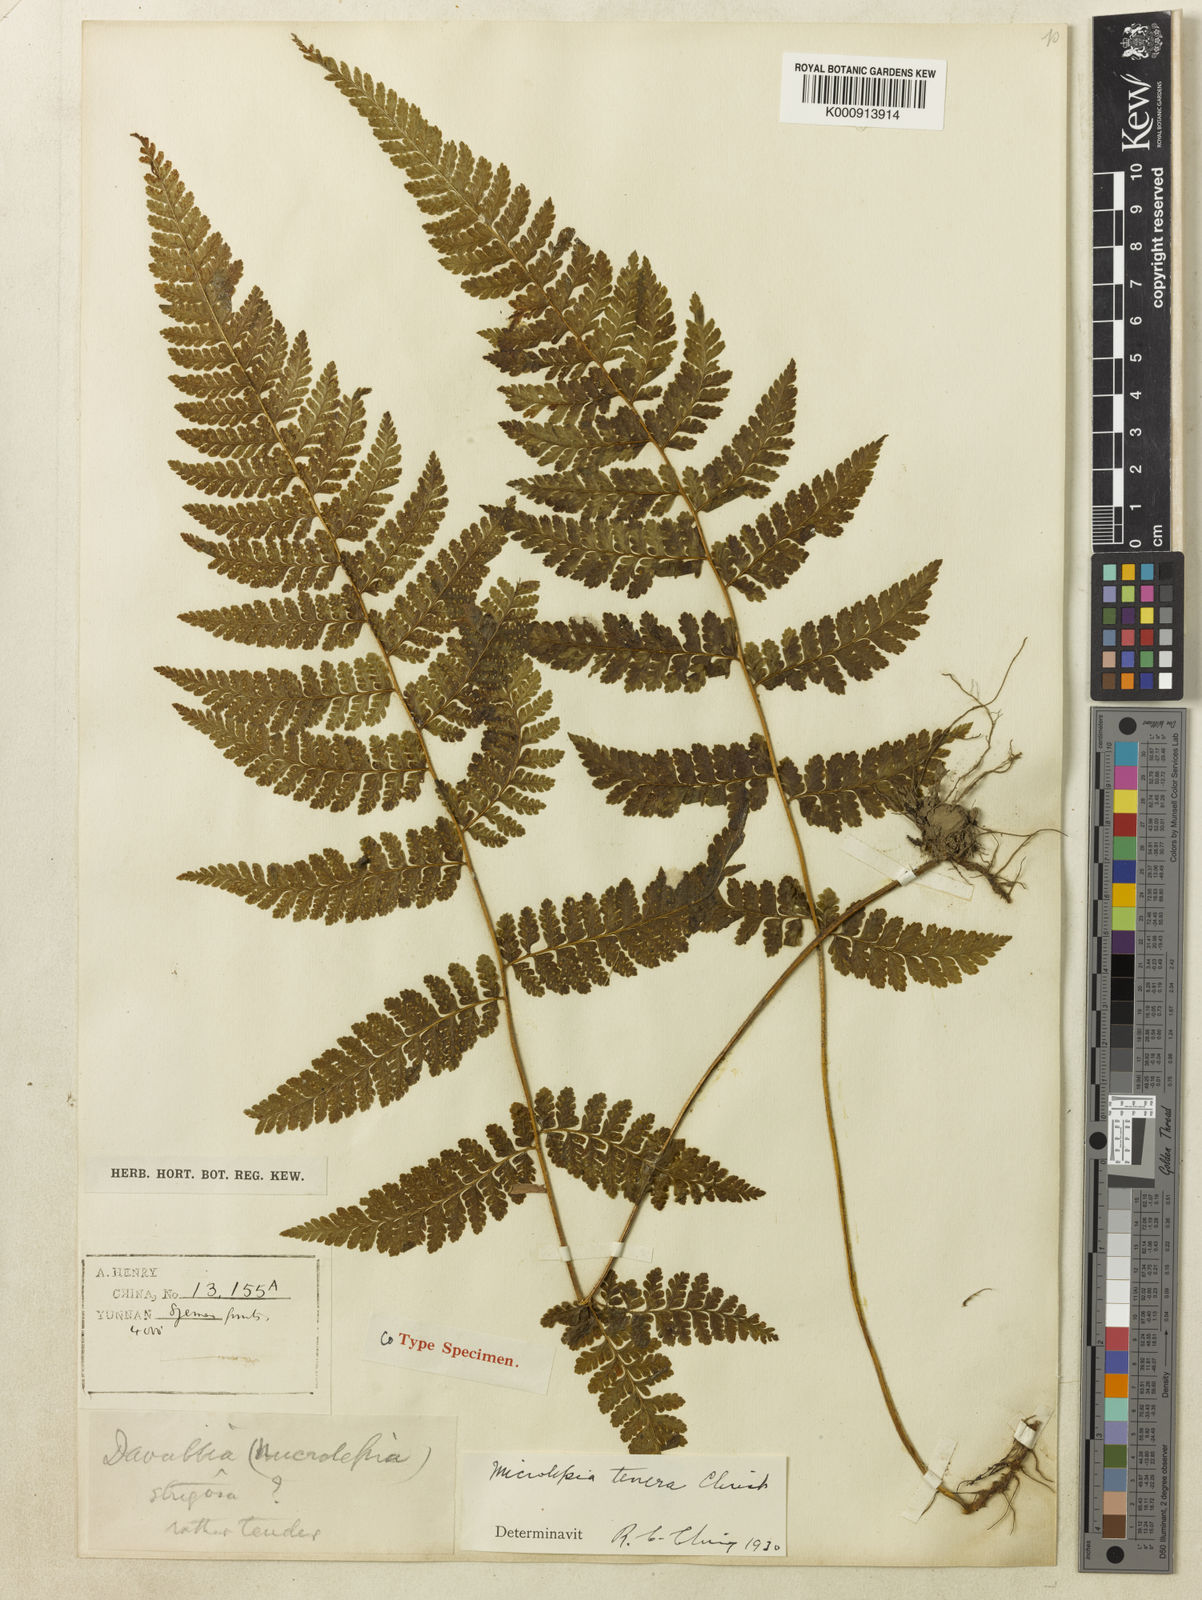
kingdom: Plantae
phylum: Tracheophyta
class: Polypodiopsida
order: Polypodiales
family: Dennstaedtiaceae
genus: Microlepia
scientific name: Microlepia tenera
